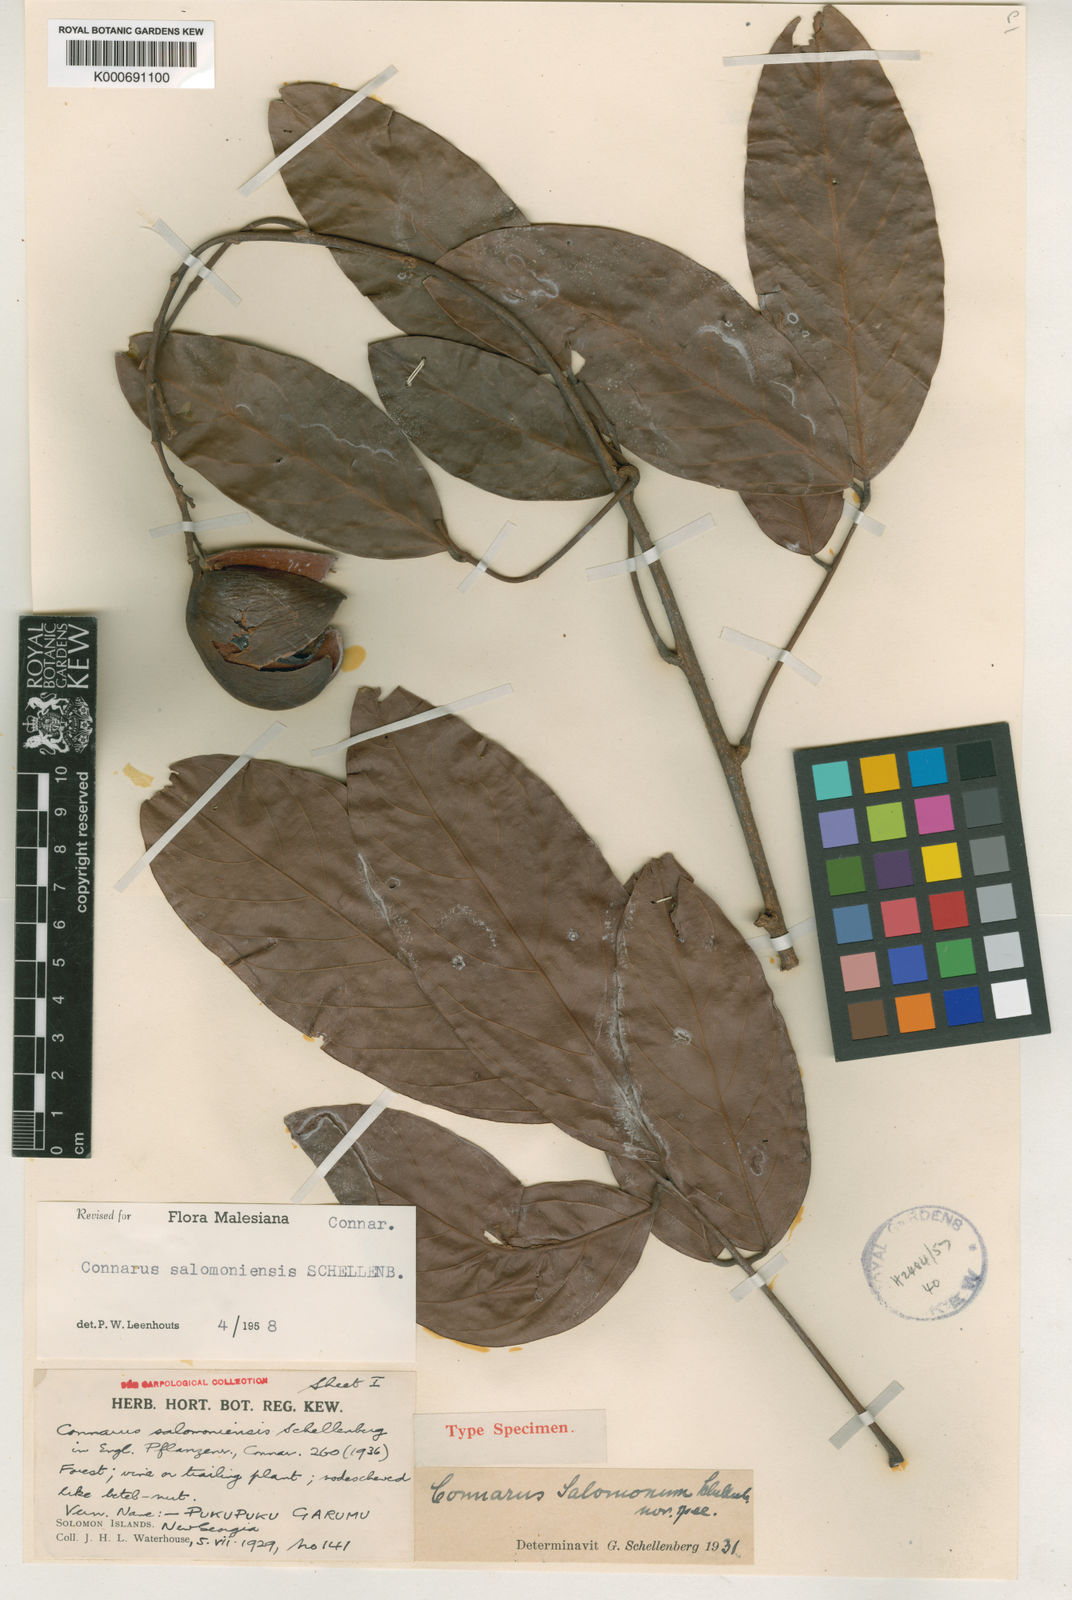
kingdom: Plantae
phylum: Tracheophyta
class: Magnoliopsida
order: Oxalidales
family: Connaraceae
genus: Connarus
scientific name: Connarus salomoniensis
